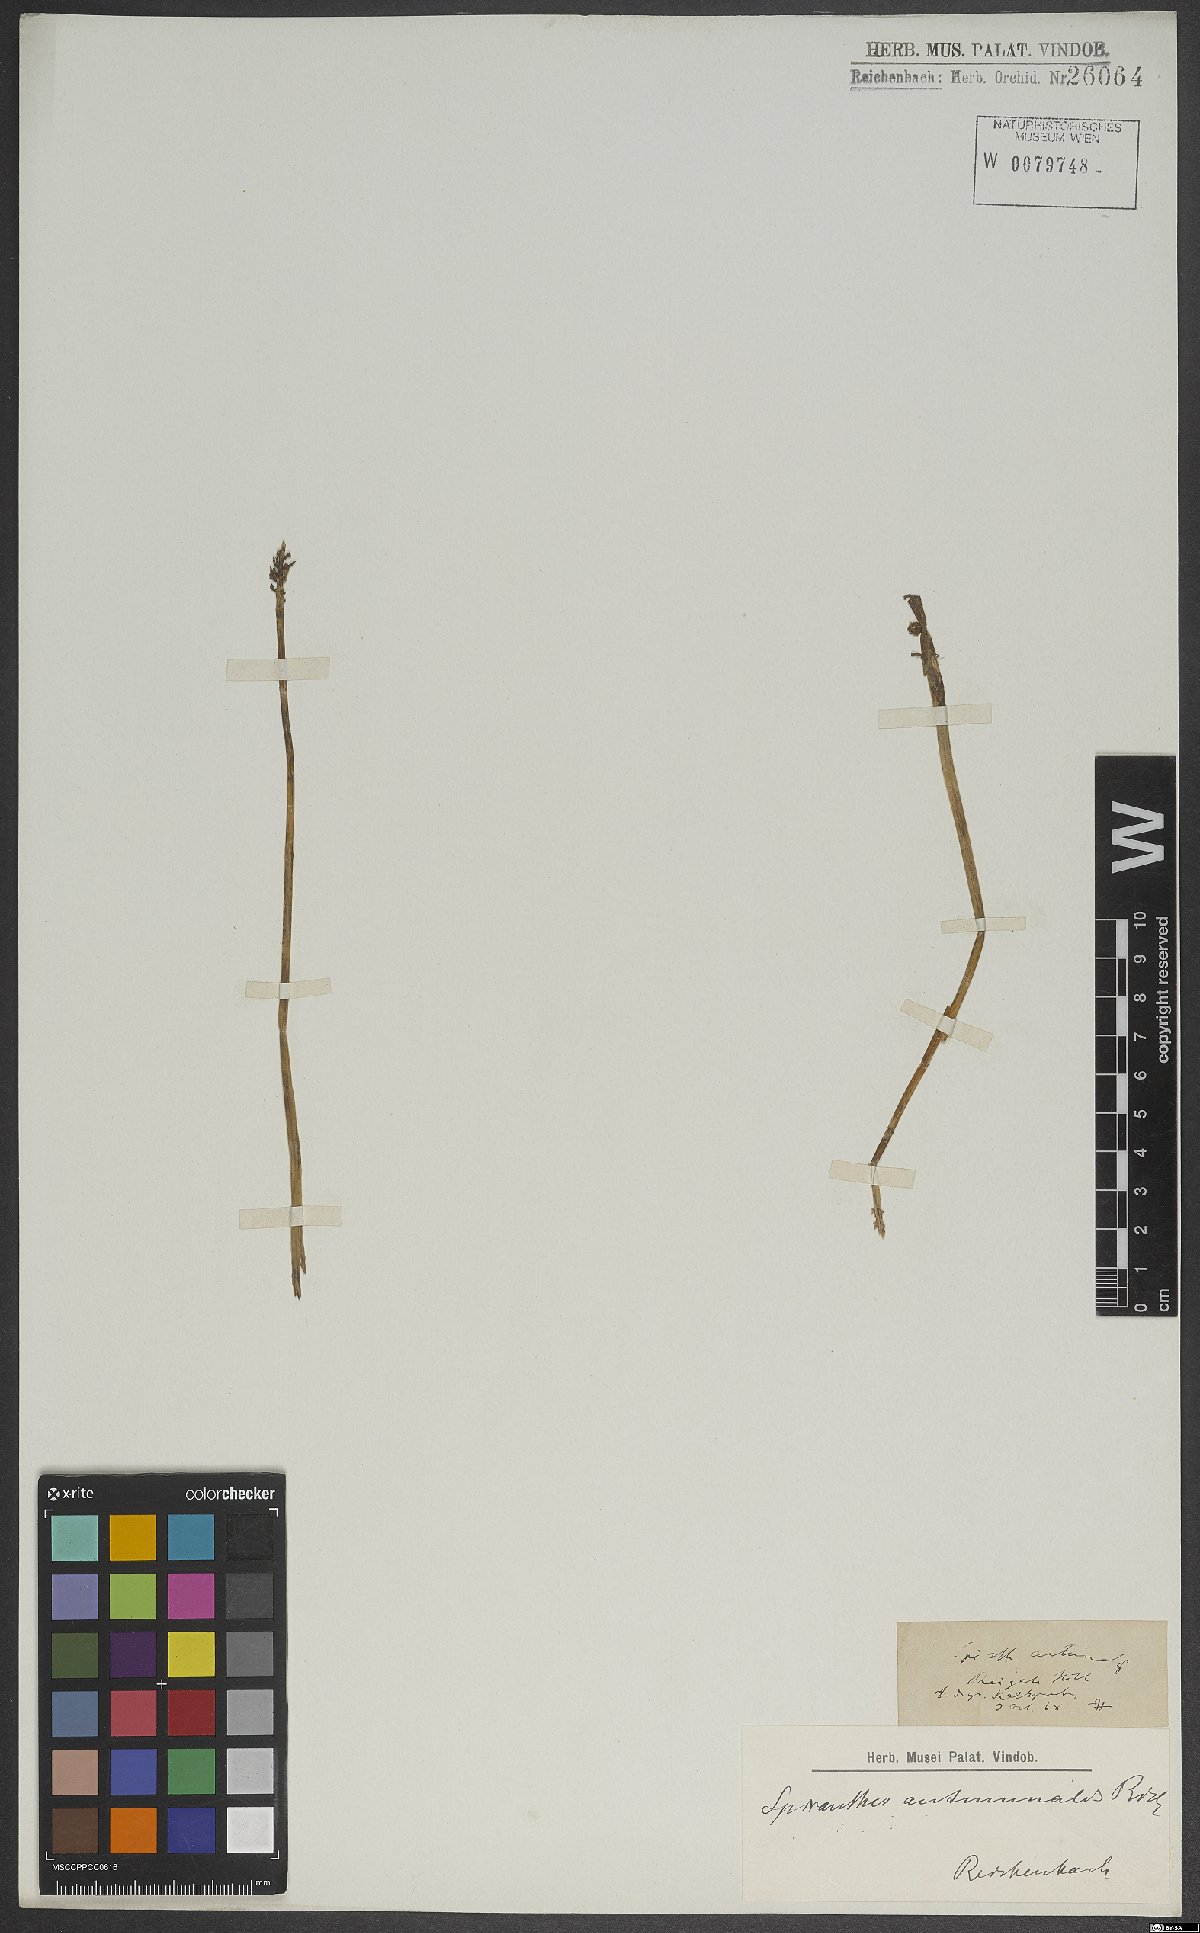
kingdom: Plantae
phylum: Tracheophyta
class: Liliopsida
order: Asparagales
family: Orchidaceae
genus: Spiranthes
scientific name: Spiranthes spiralis
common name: Autumn lady's-tresses
